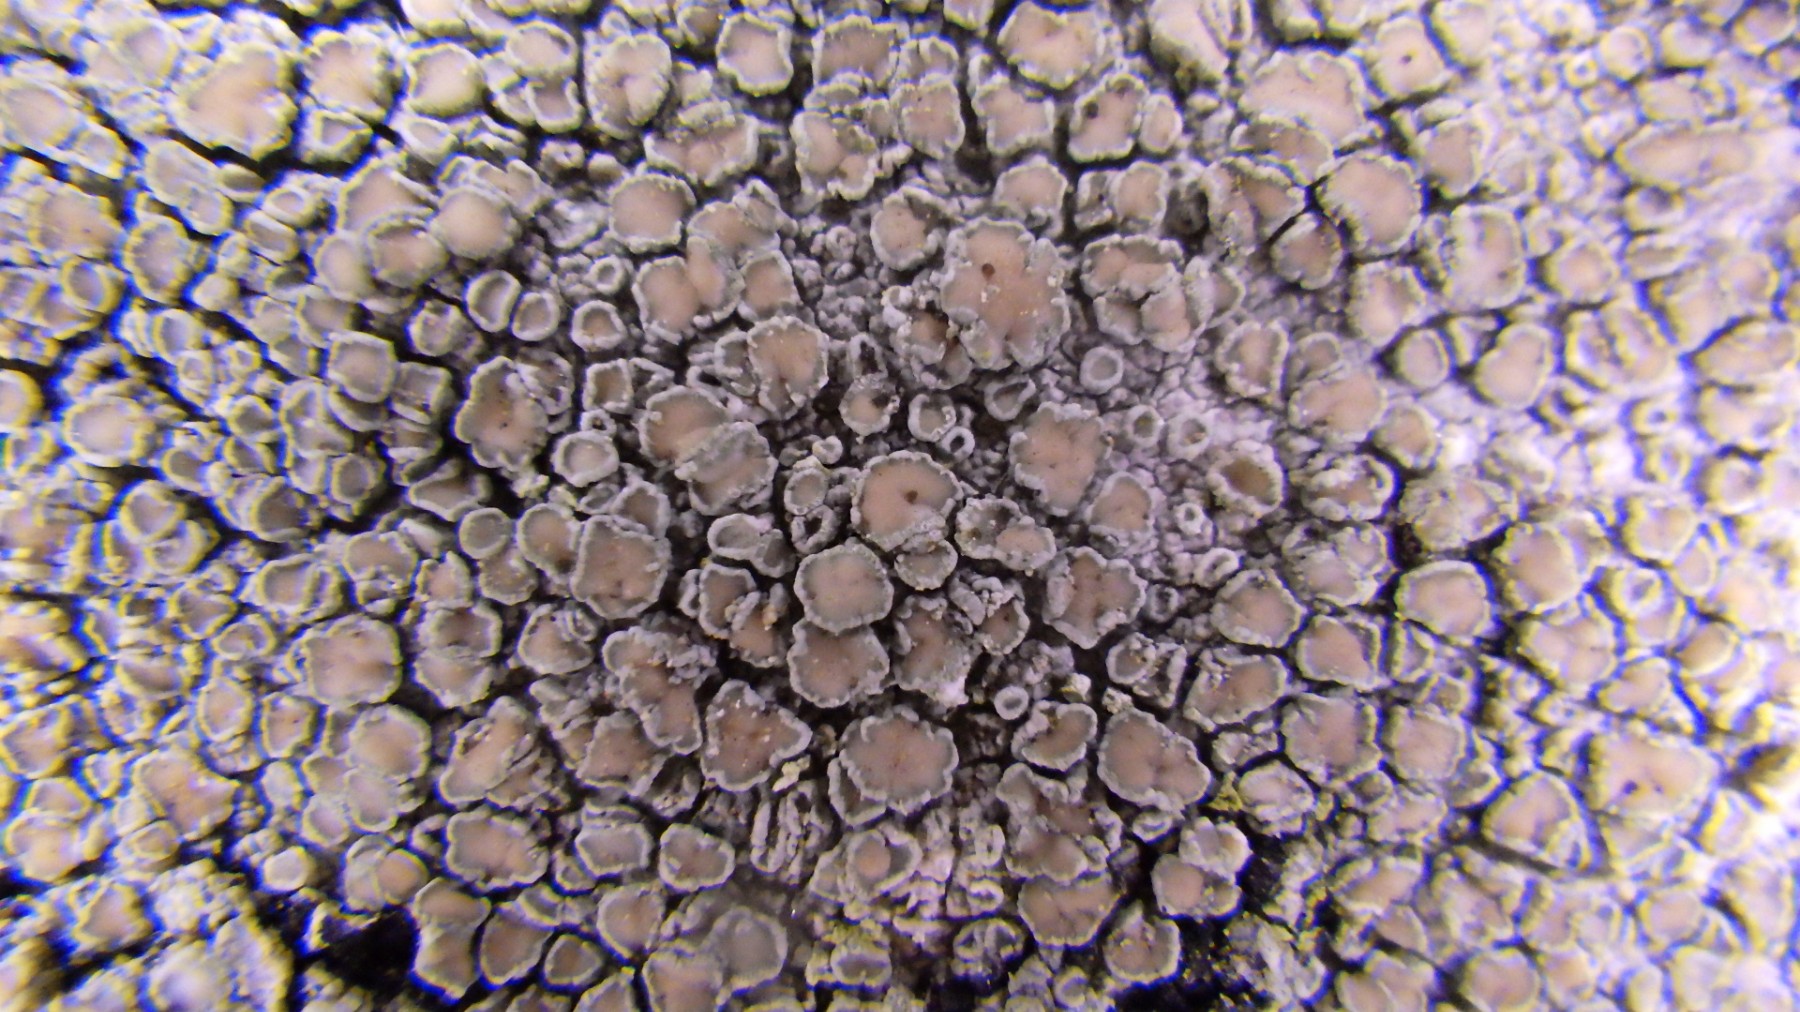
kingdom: Fungi
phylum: Ascomycota
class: Lecanoromycetes
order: Lecanorales
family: Lecanoraceae
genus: Lecanora
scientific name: Lecanora chlarotera
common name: brun kantskivelav
